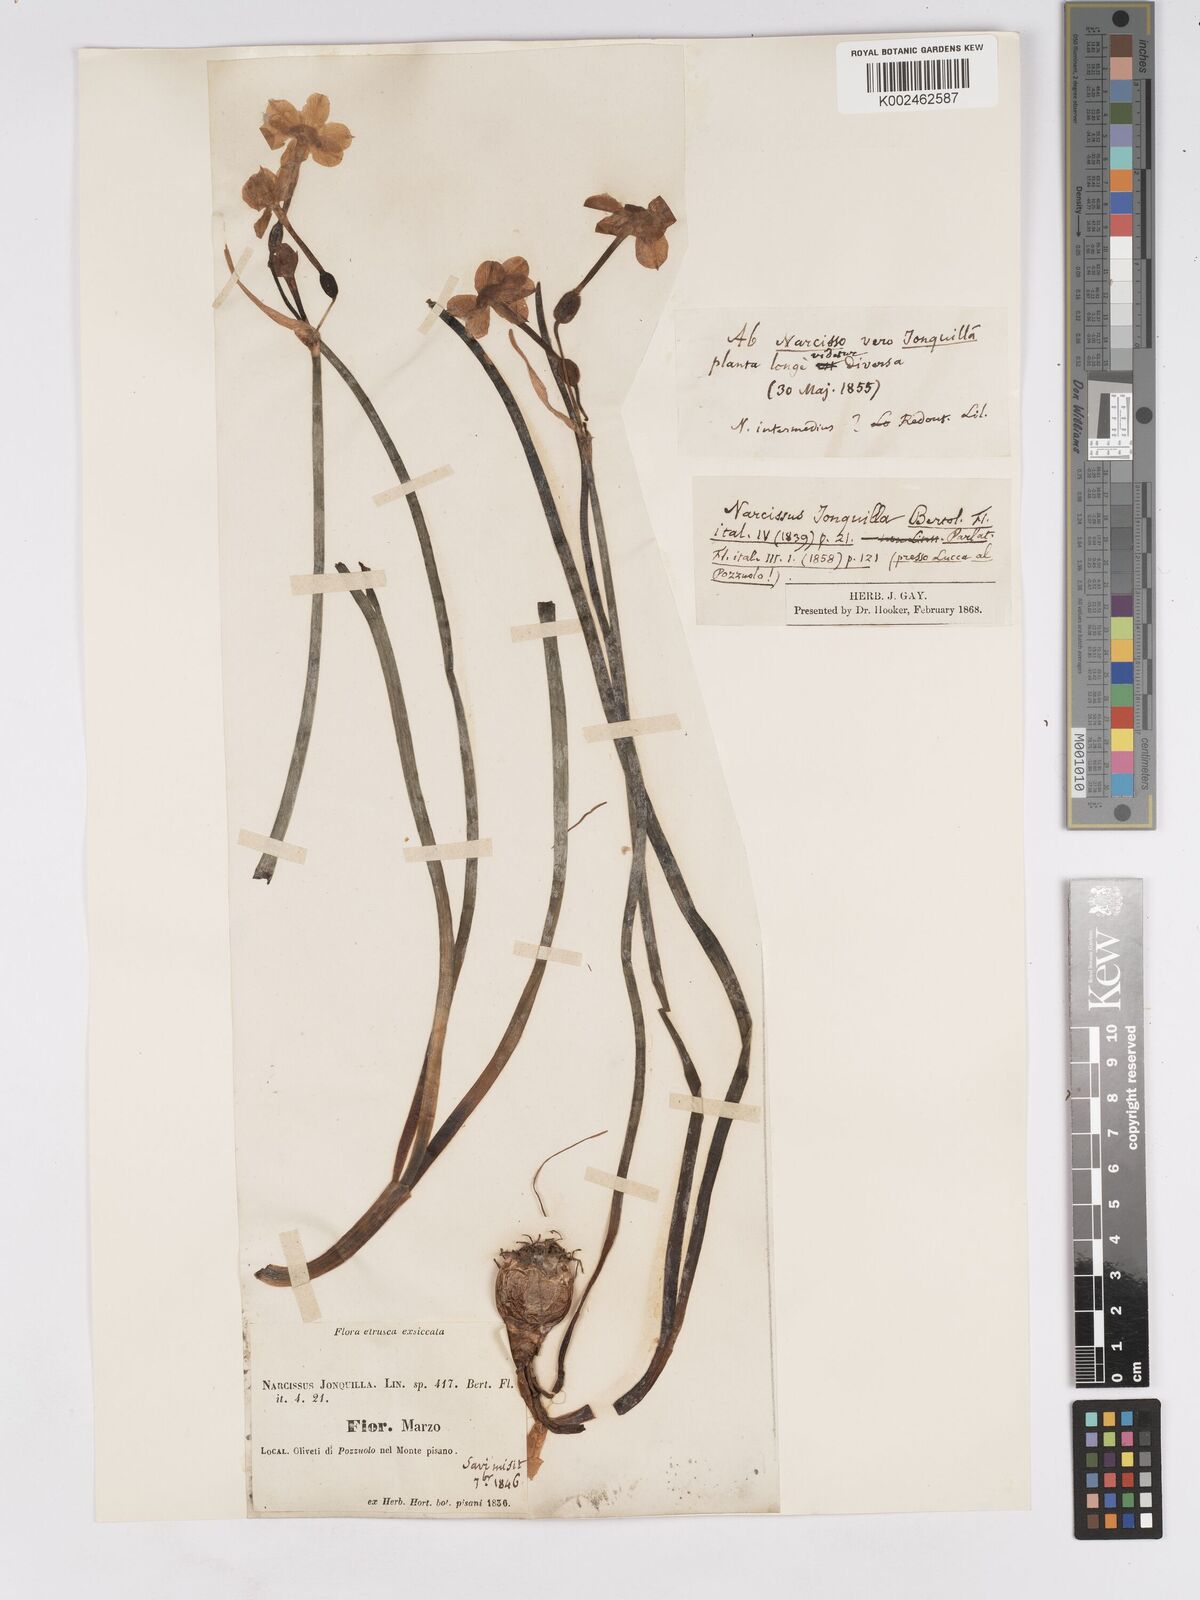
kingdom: Plantae
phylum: Tracheophyta
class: Liliopsida
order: Asparagales
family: Amaryllidaceae
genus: Narcissus
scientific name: Narcissus jonquilla
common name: Jonquil
